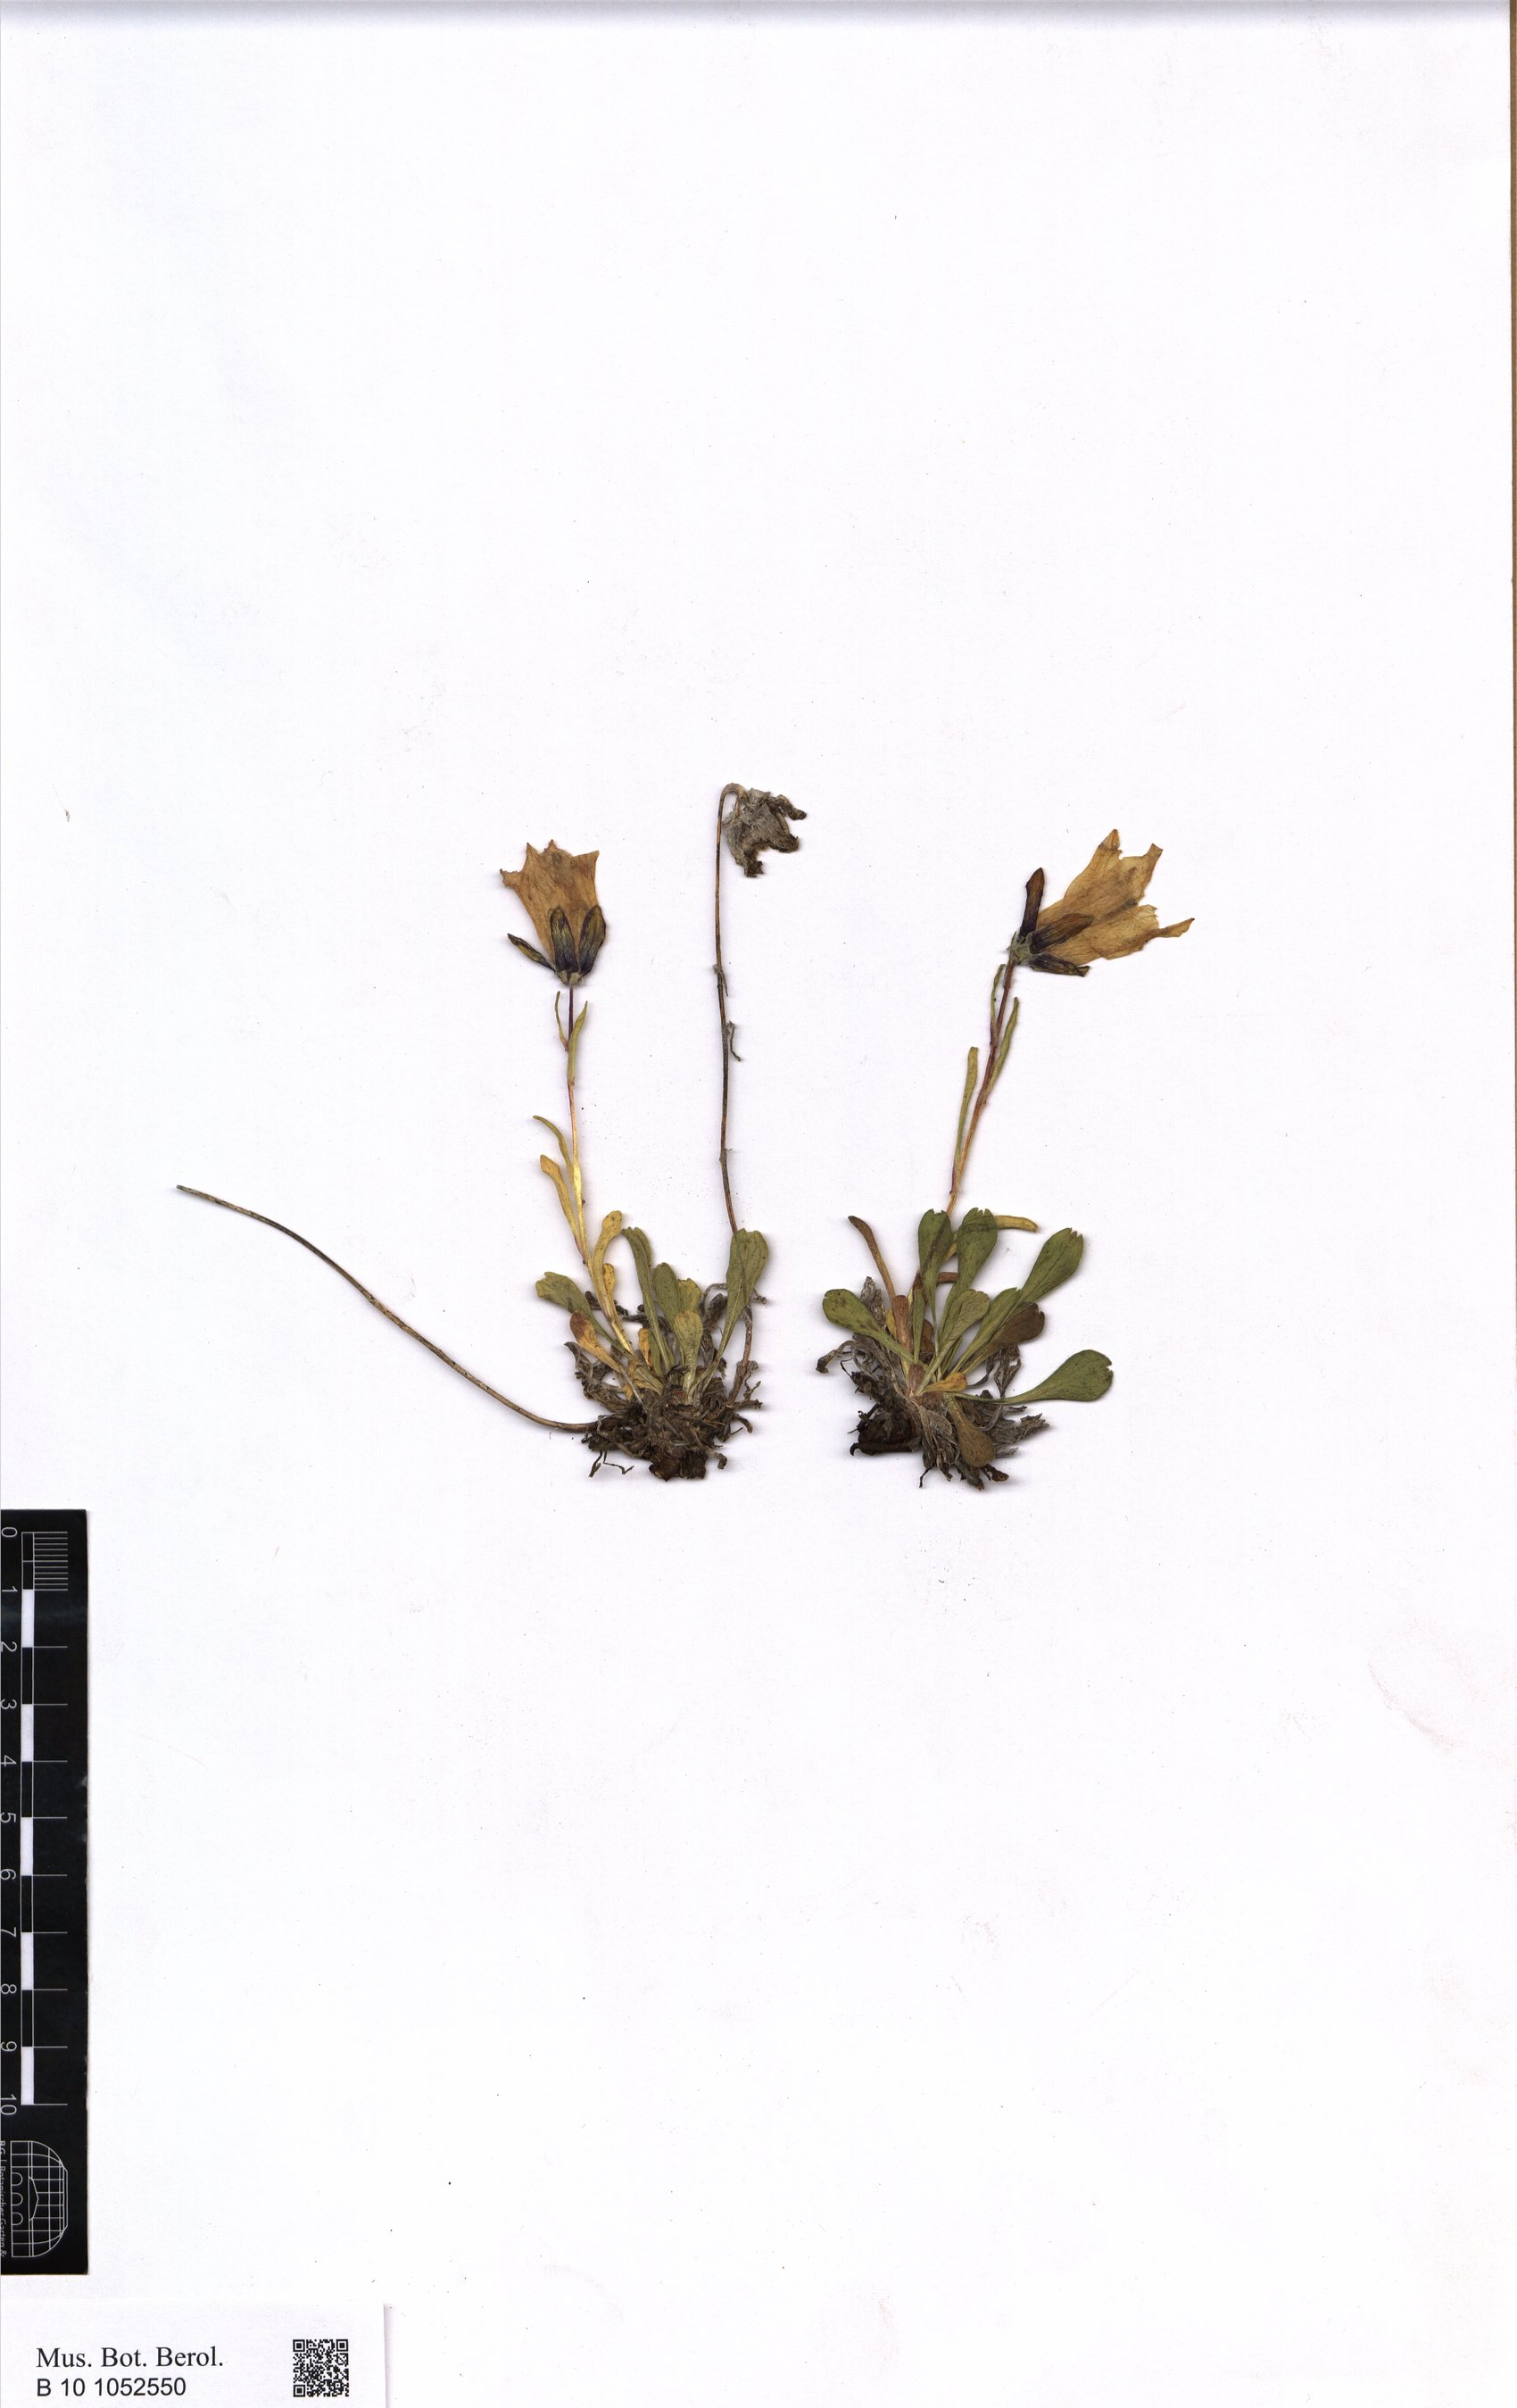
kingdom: Plantae
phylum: Tracheophyta
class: Magnoliopsida
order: Asterales
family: Campanulaceae
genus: Campanula
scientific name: Campanula tridentata
